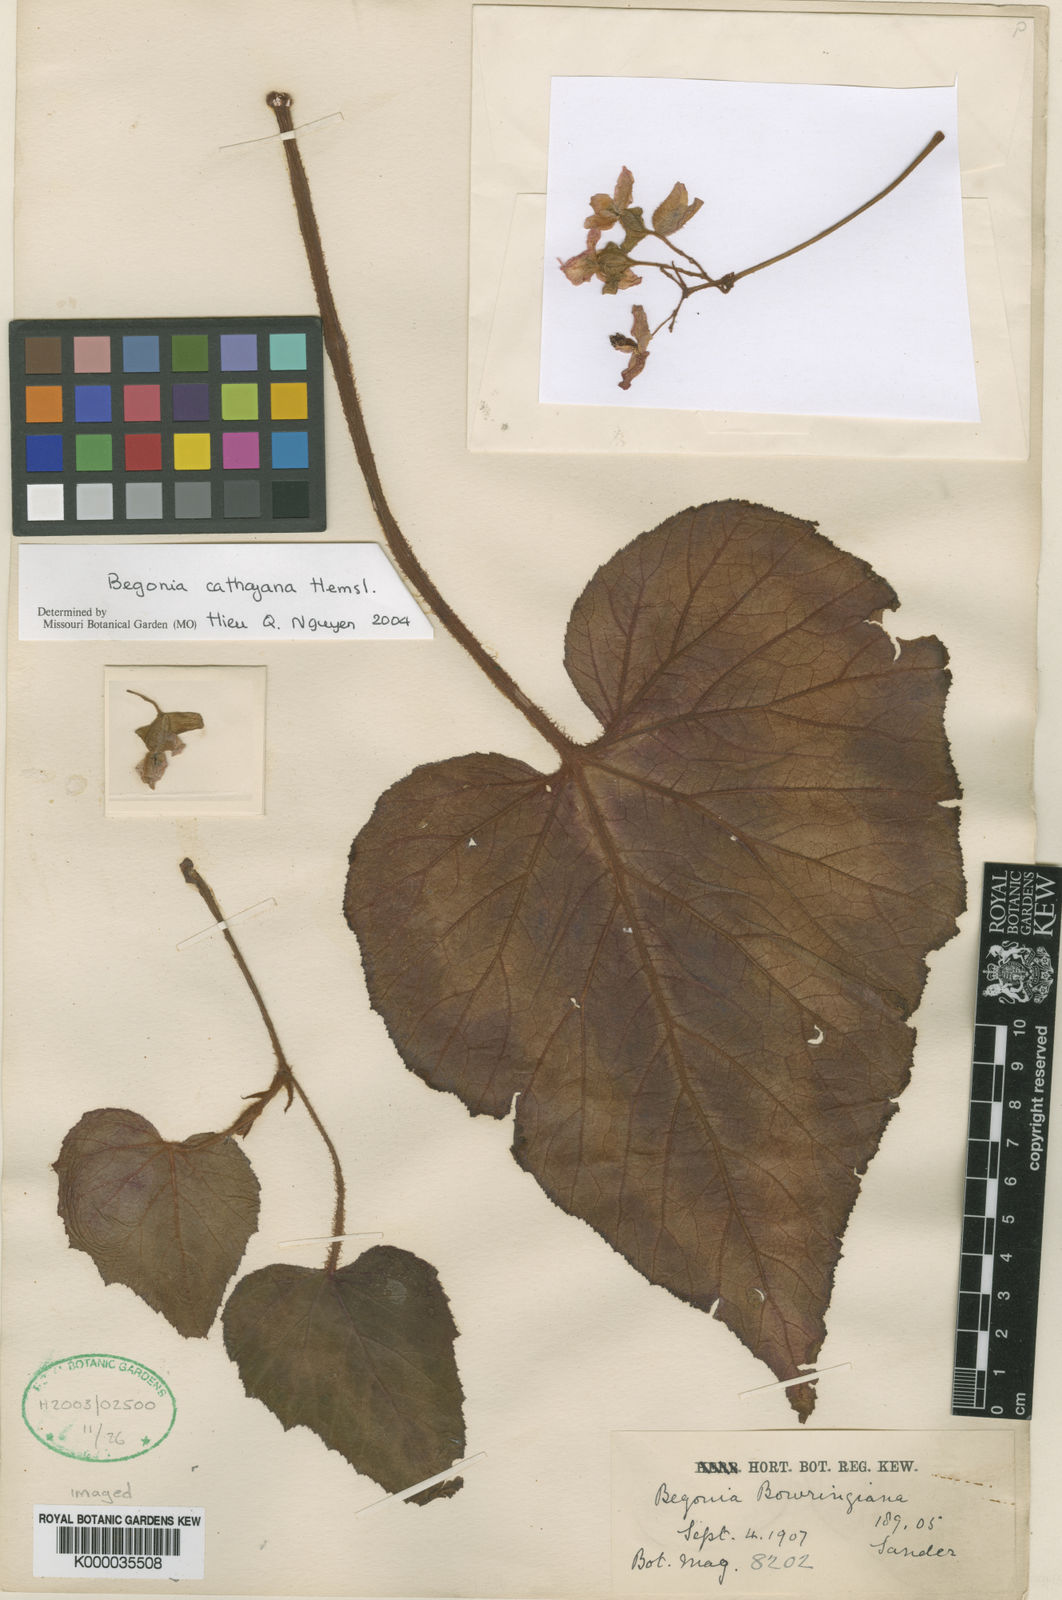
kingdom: Plantae
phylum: Tracheophyta
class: Magnoliopsida
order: Cucurbitales
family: Begoniaceae
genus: Begonia
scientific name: Begonia cathayana
